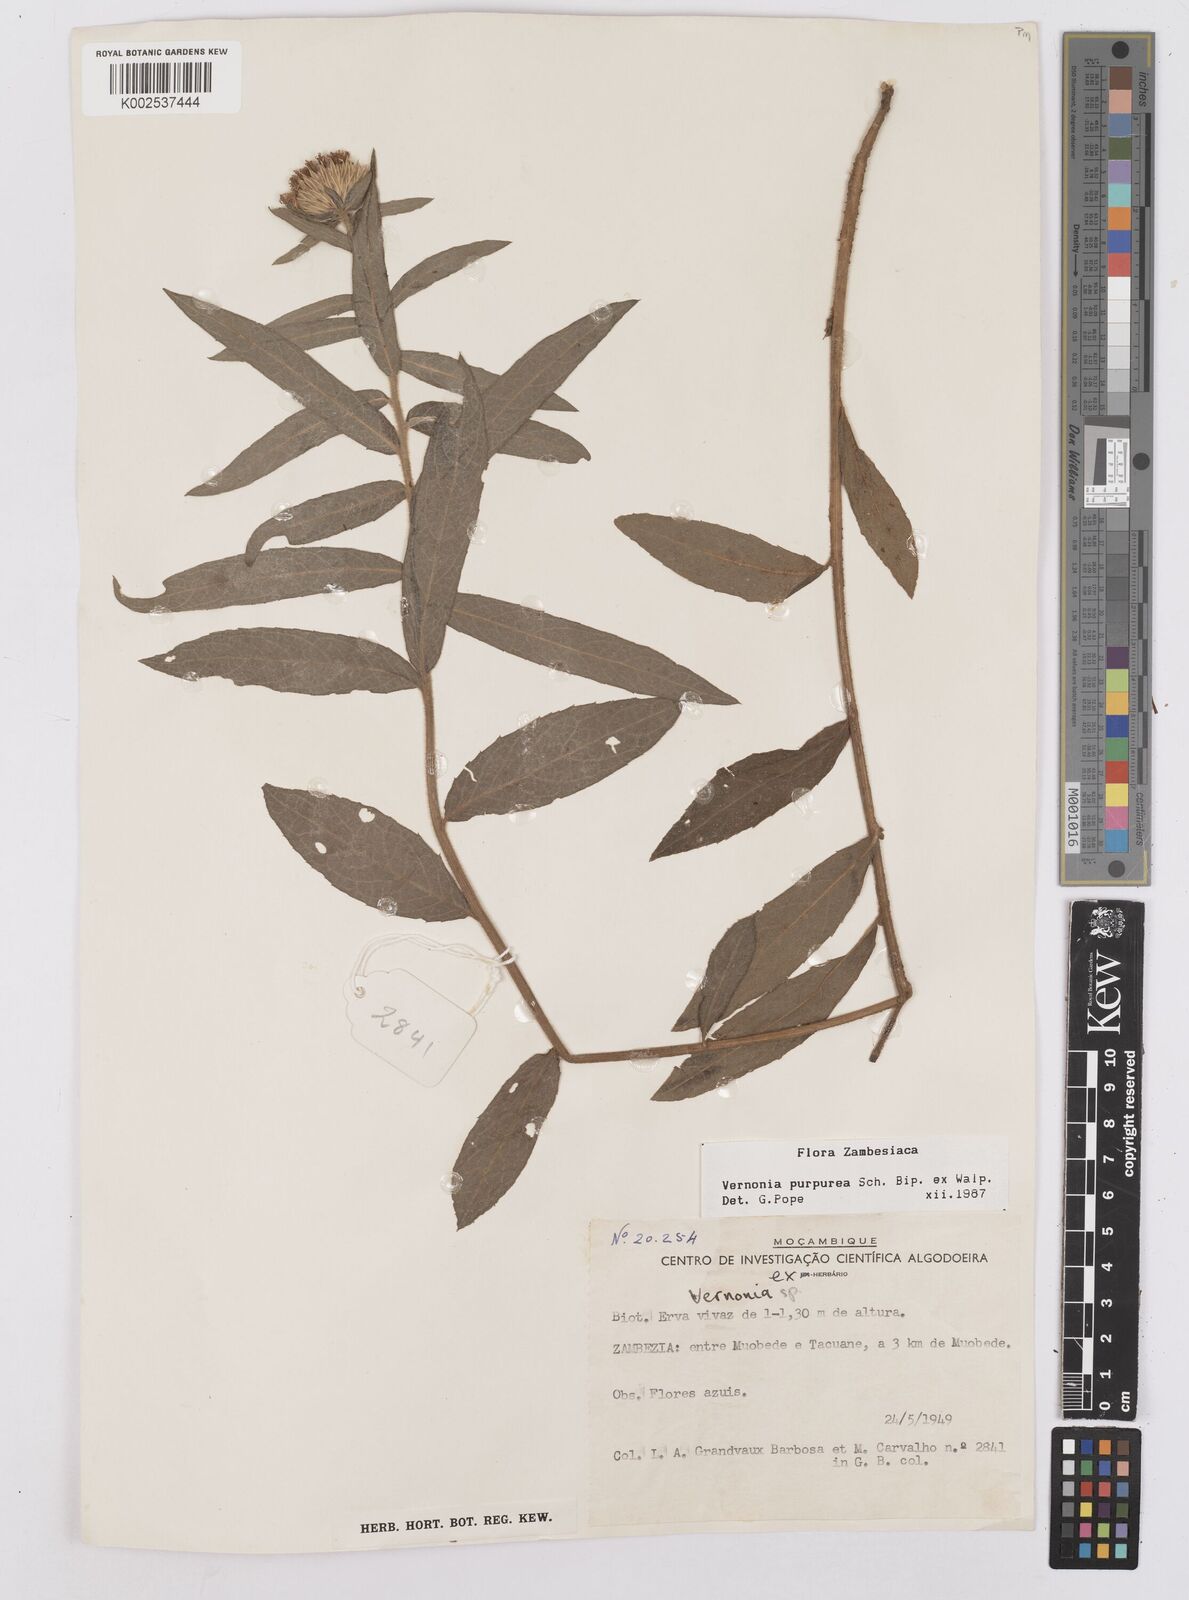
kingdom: Plantae
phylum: Tracheophyta
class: Magnoliopsida
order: Asterales
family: Asteraceae
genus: Nothovernonia
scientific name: Nothovernonia purpurea
